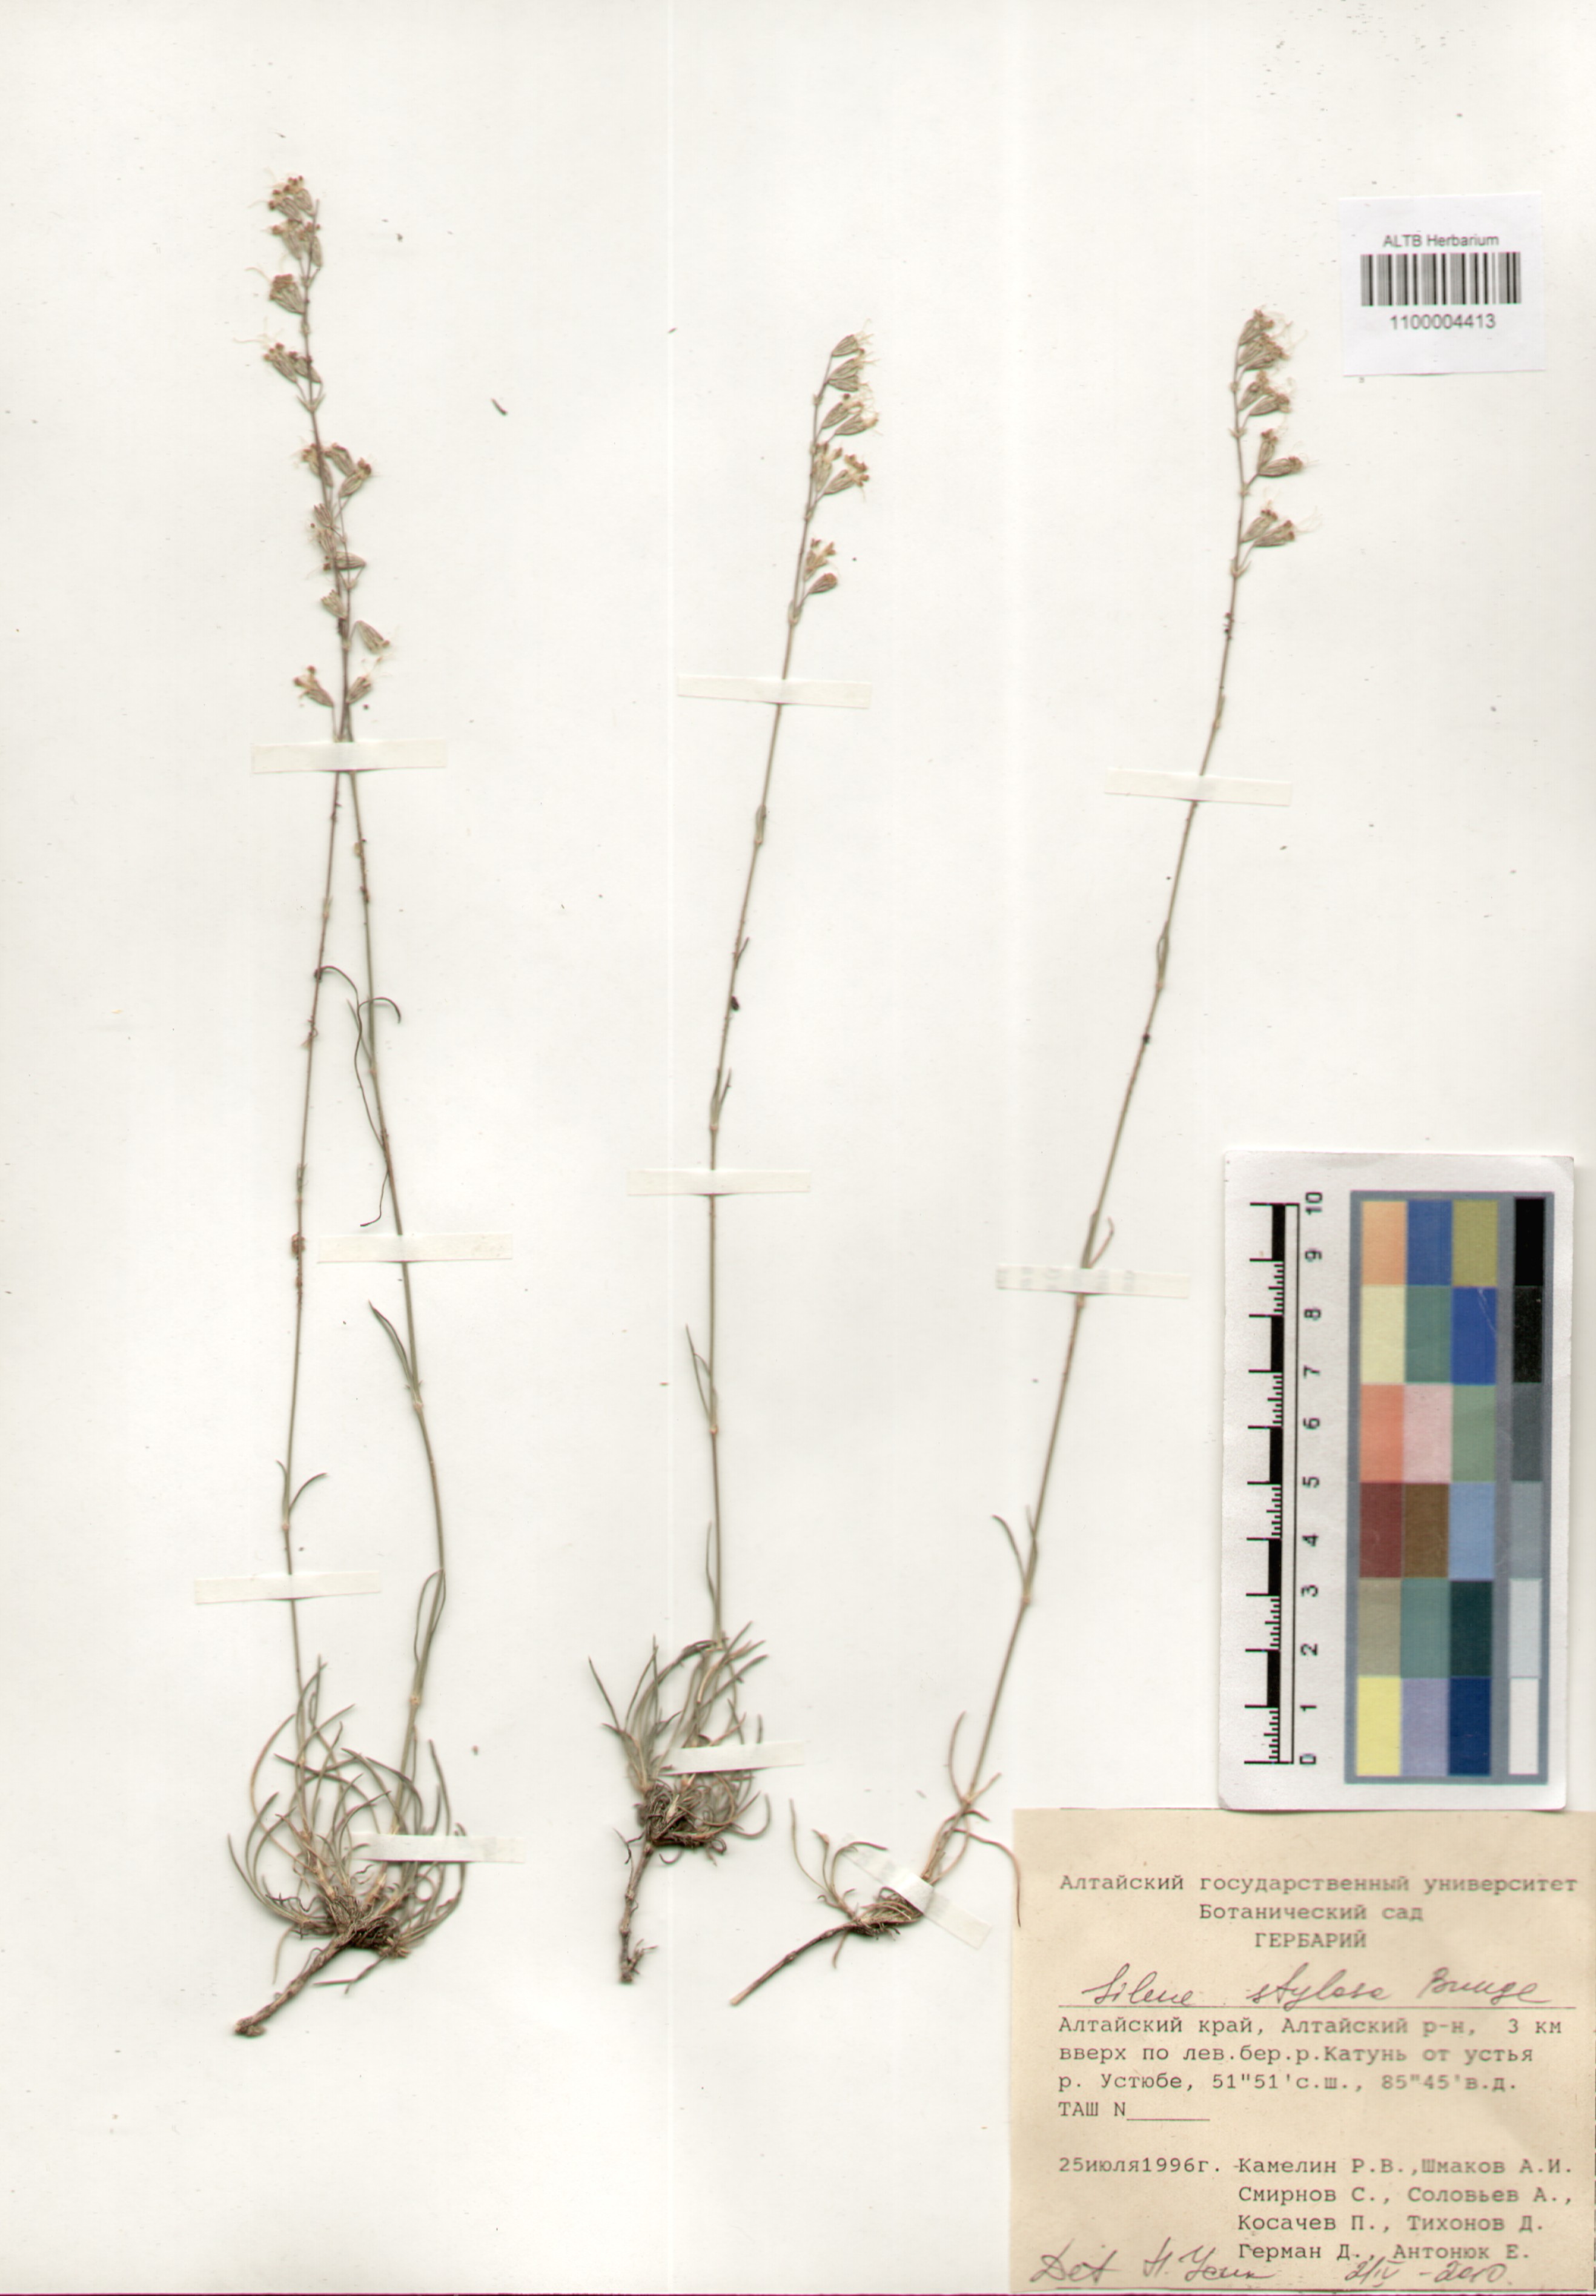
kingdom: Plantae
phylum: Tracheophyta
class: Magnoliopsida
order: Caryophyllales
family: Caryophyllaceae
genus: Silene
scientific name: Silene graminifolia
